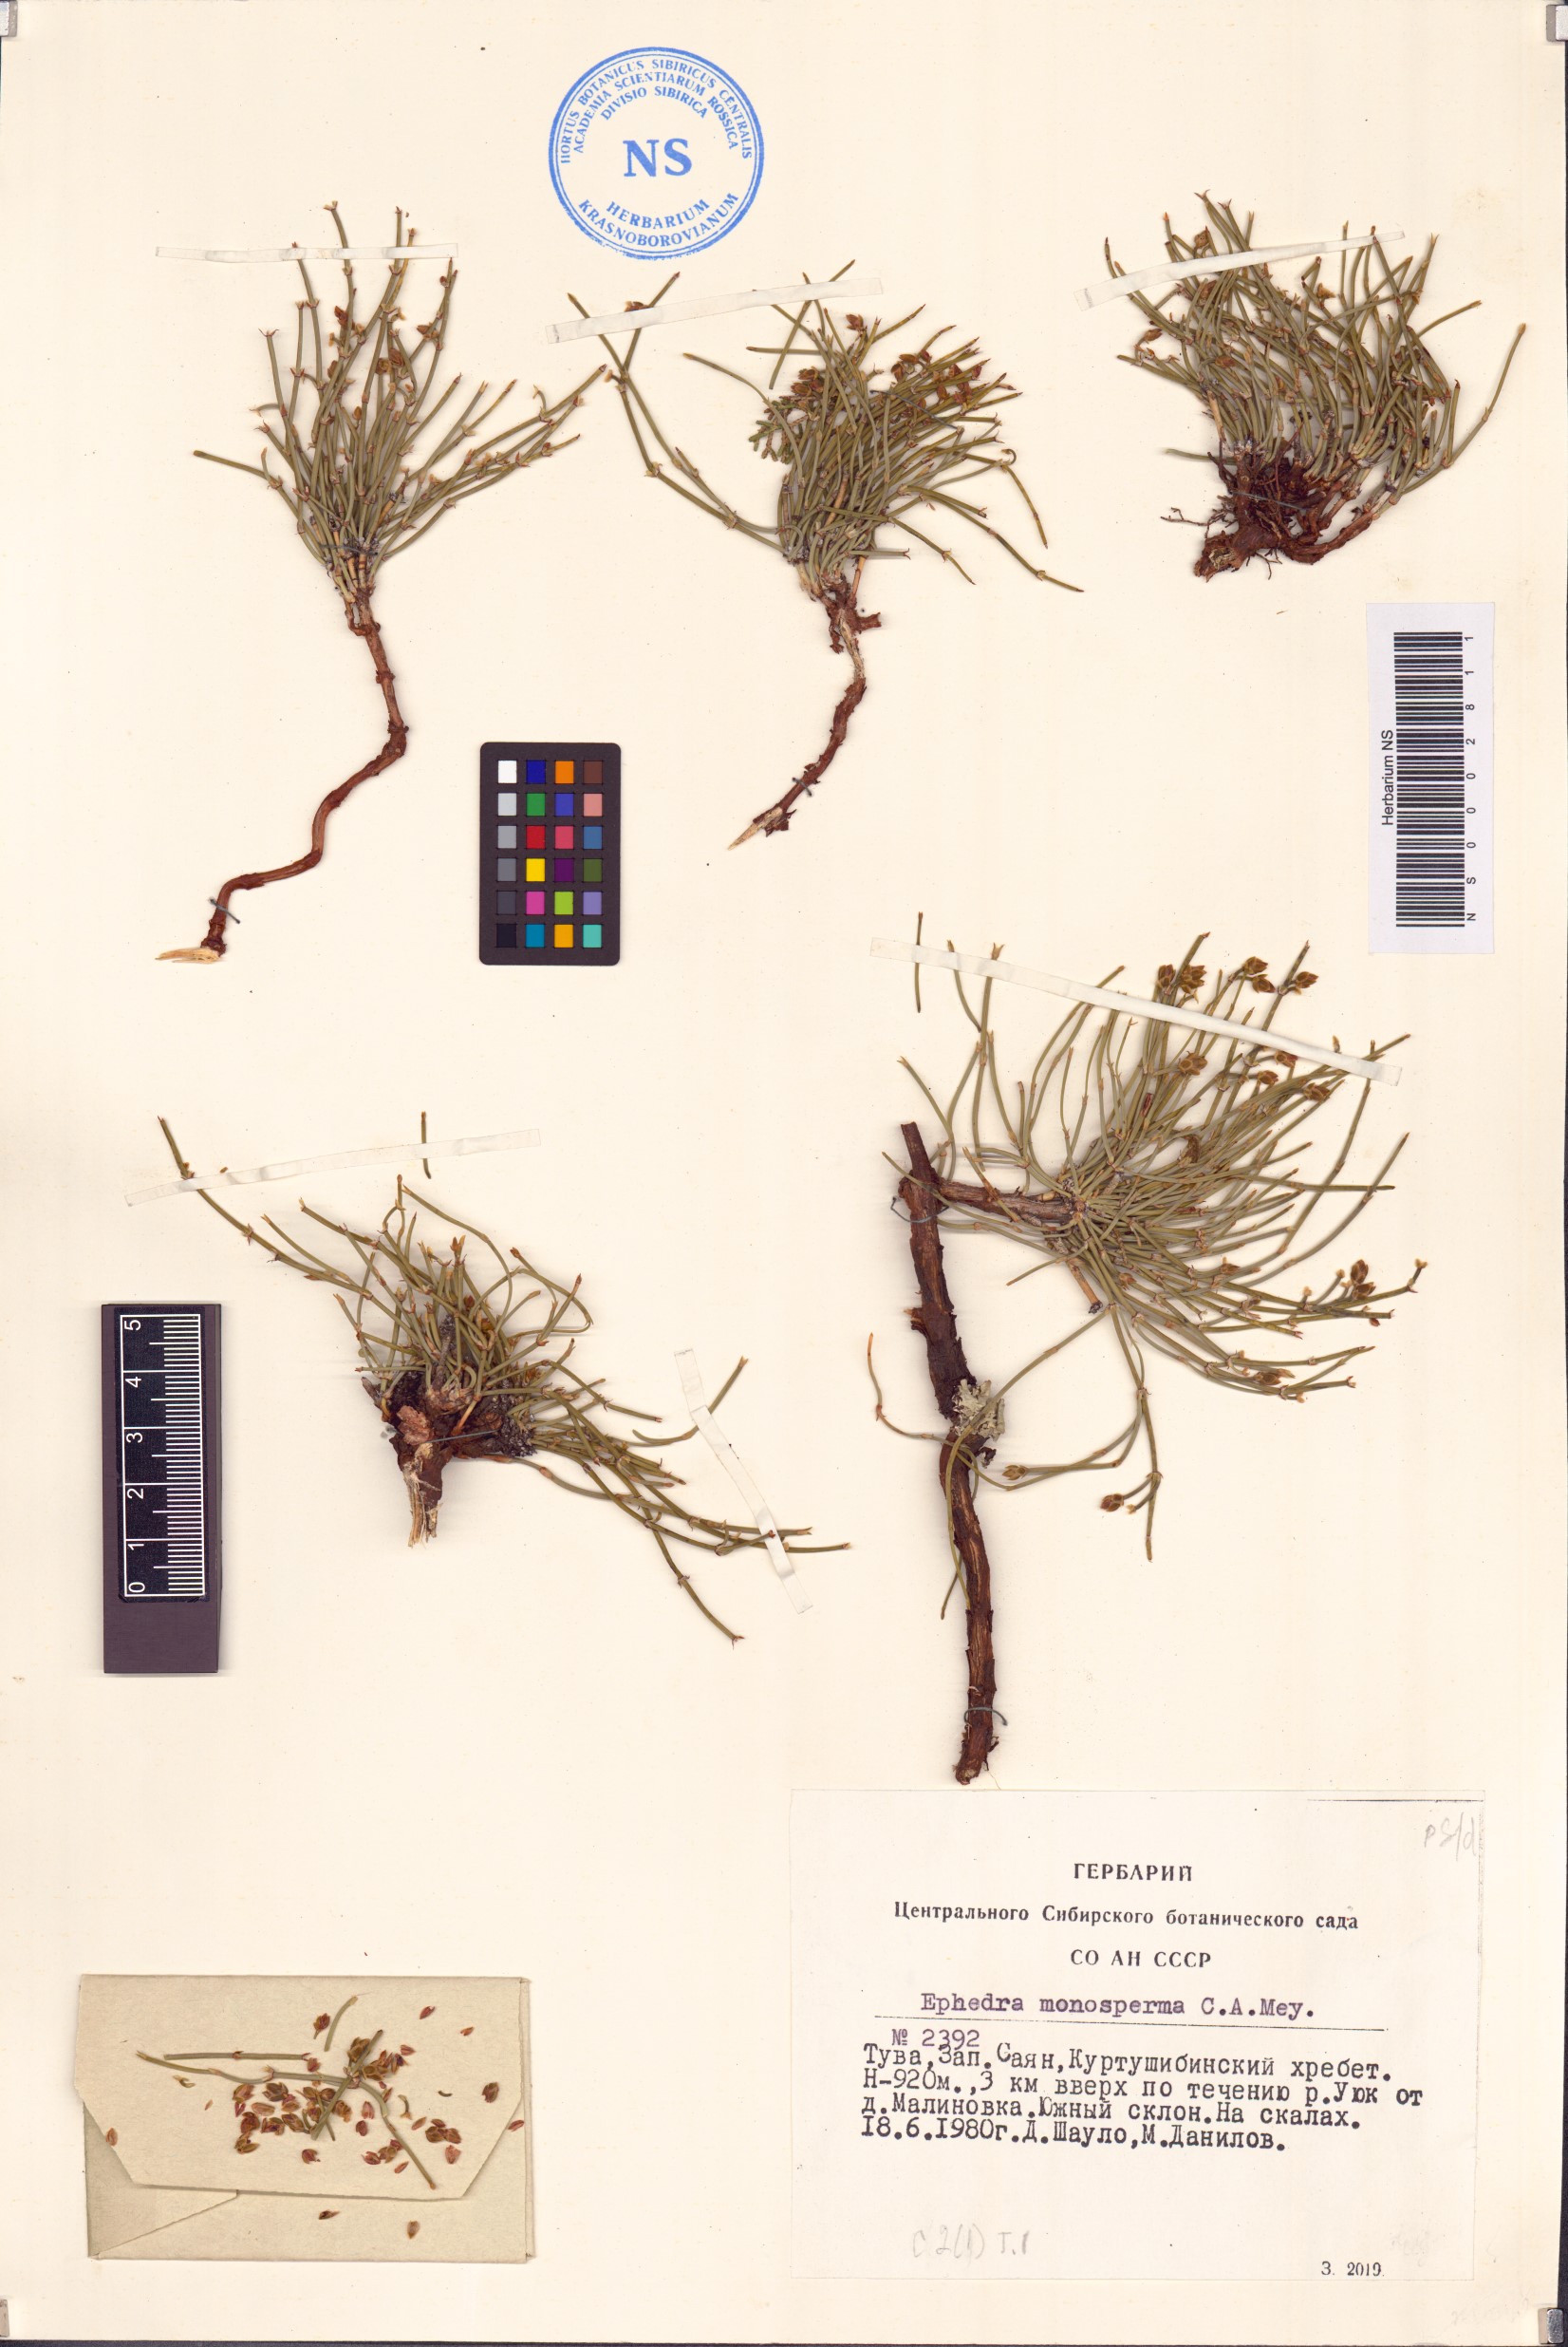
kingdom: Plantae
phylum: Tracheophyta
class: Gnetopsida
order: Ephedrales
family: Ephedraceae
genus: Ephedra
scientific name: Ephedra monosperma
